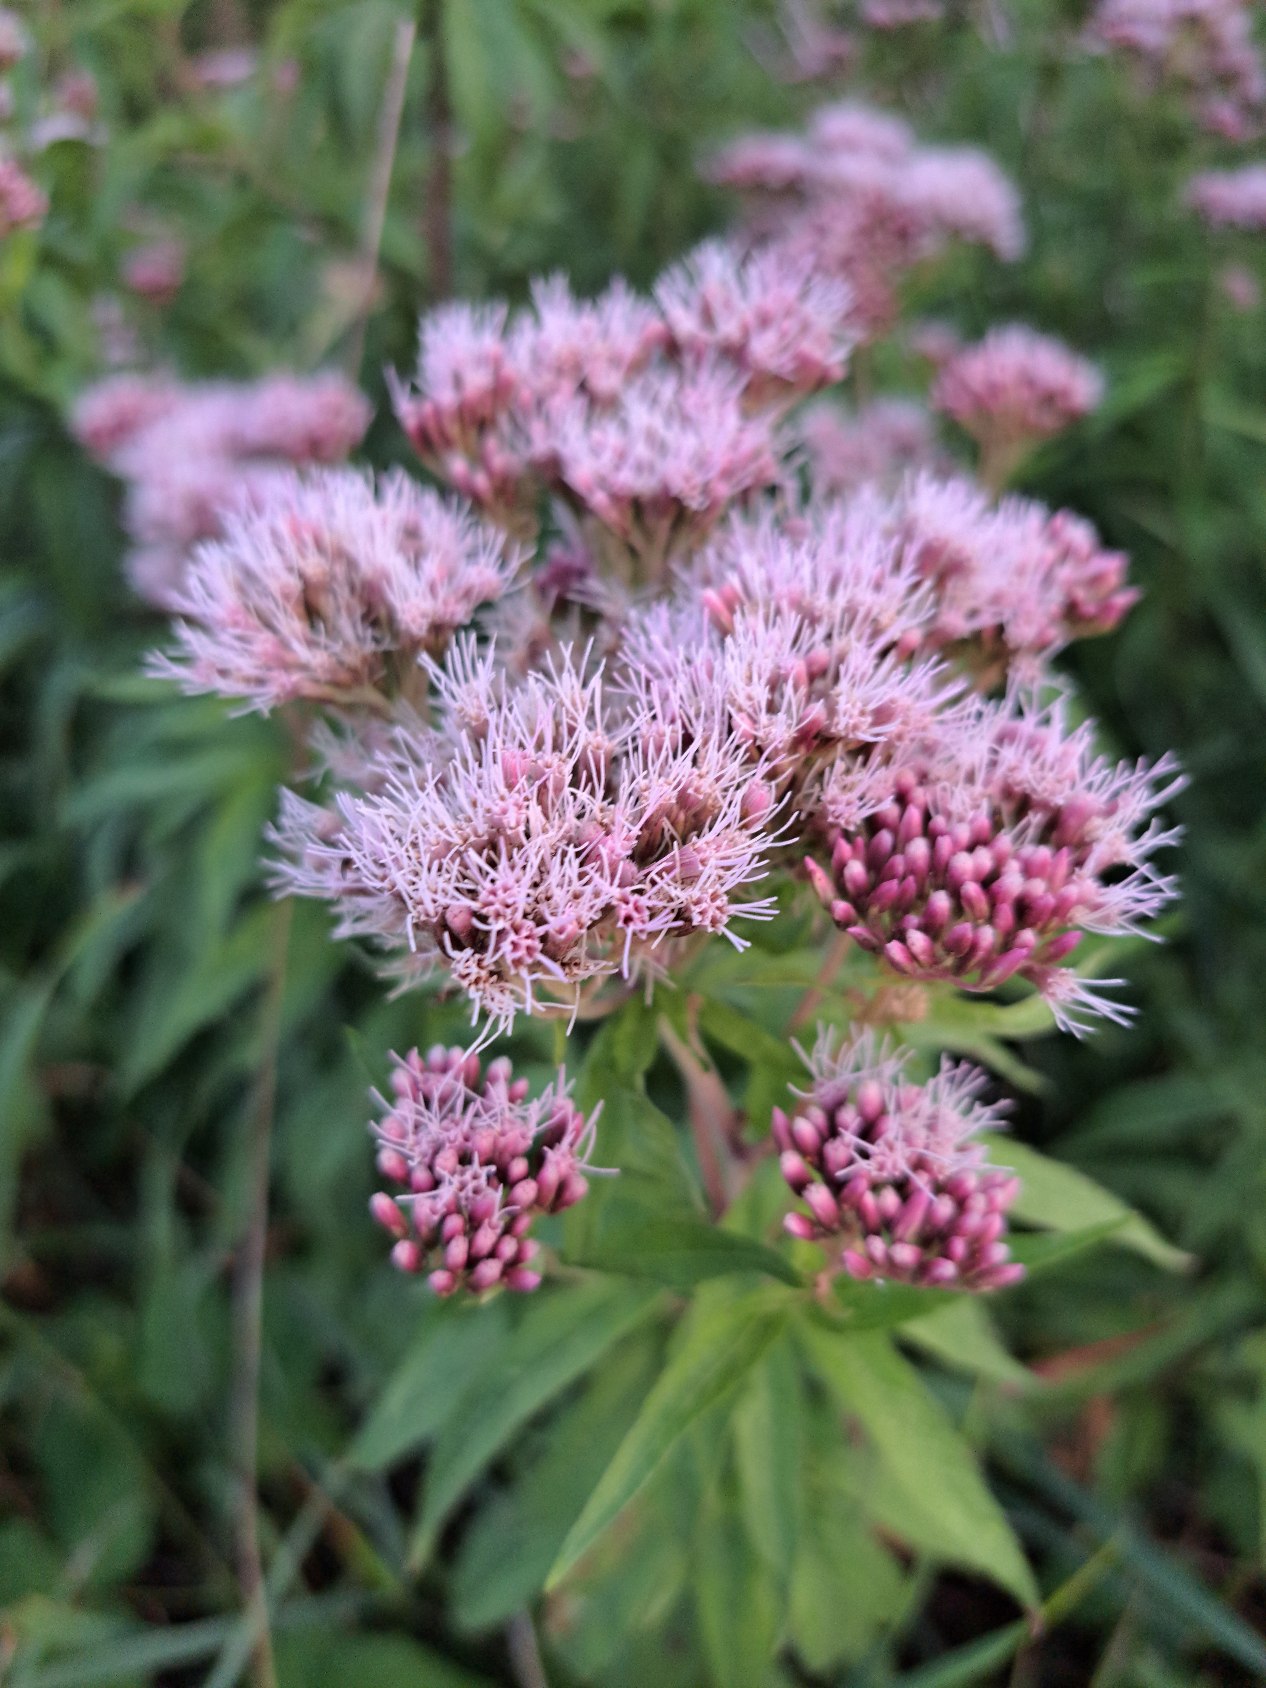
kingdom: Plantae
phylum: Tracheophyta
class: Magnoliopsida
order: Asterales
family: Asteraceae
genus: Eupatorium
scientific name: Eupatorium cannabinum
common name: Hjortetrøst
